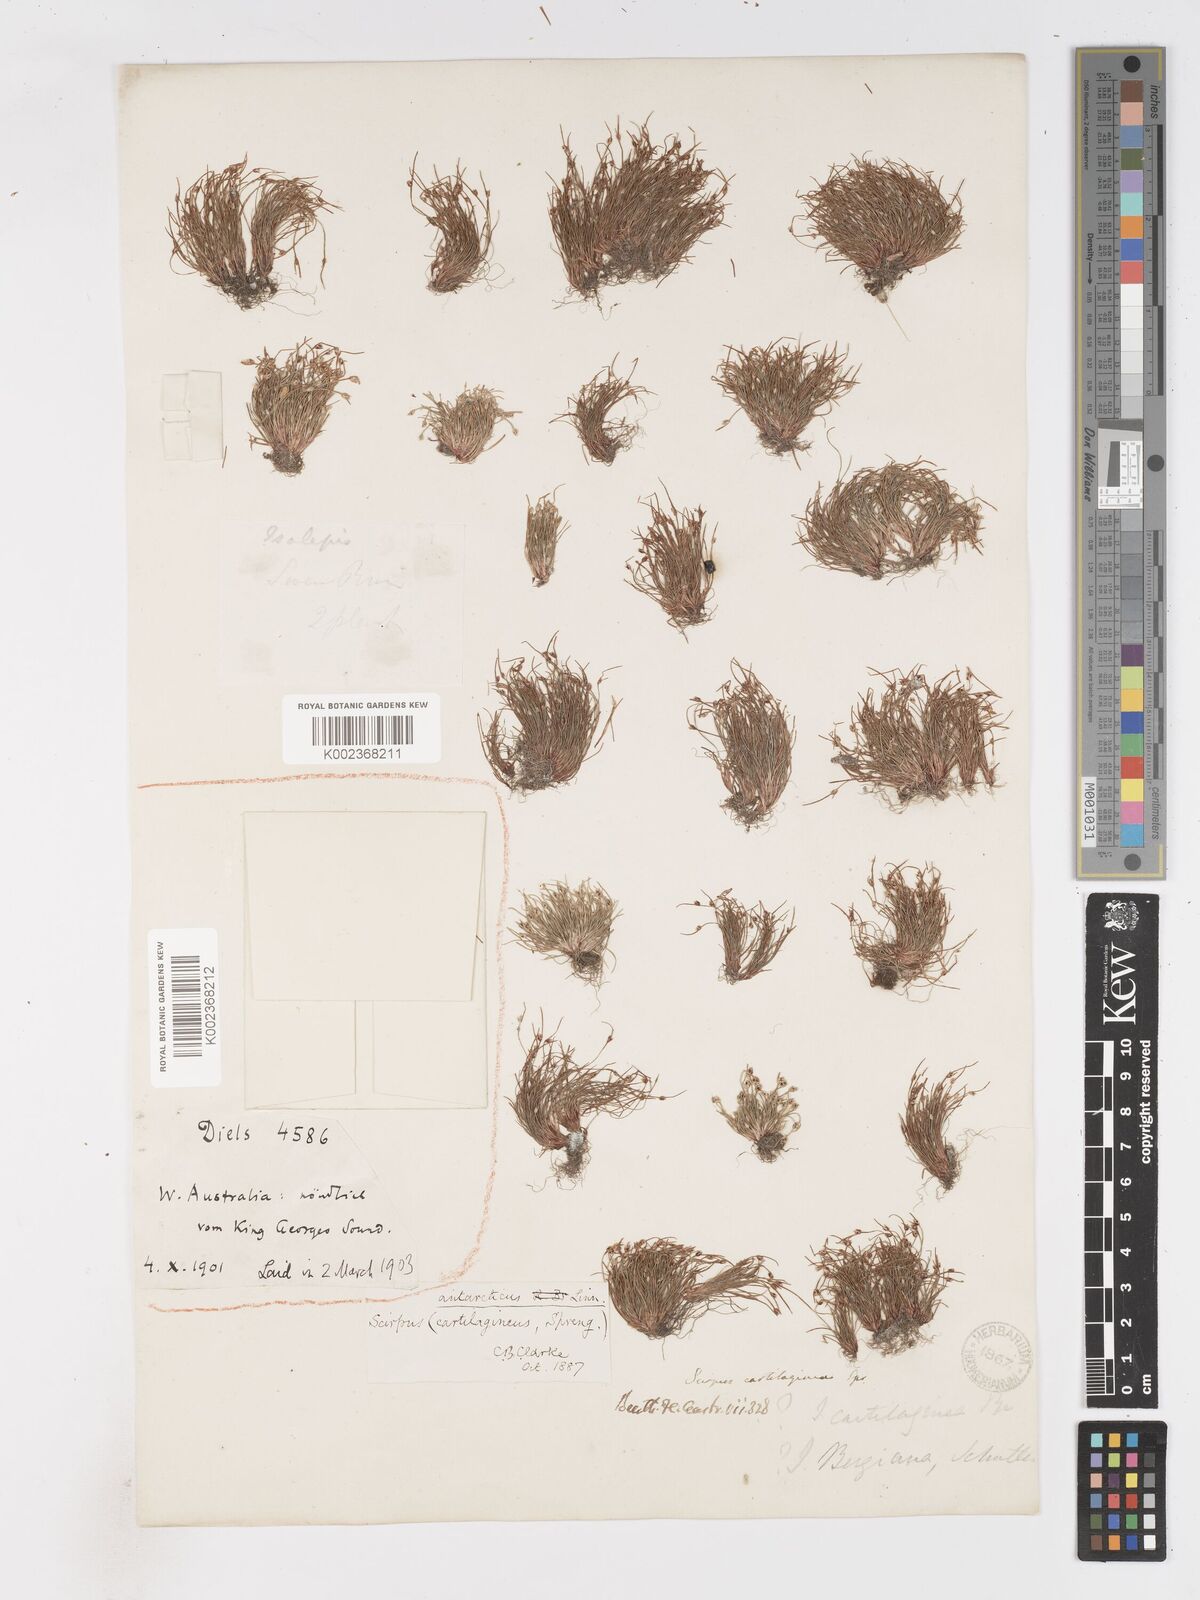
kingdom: Plantae
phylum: Tracheophyta
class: Liliopsida
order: Poales
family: Cyperaceae
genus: Isolepis
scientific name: Isolepis marginata
